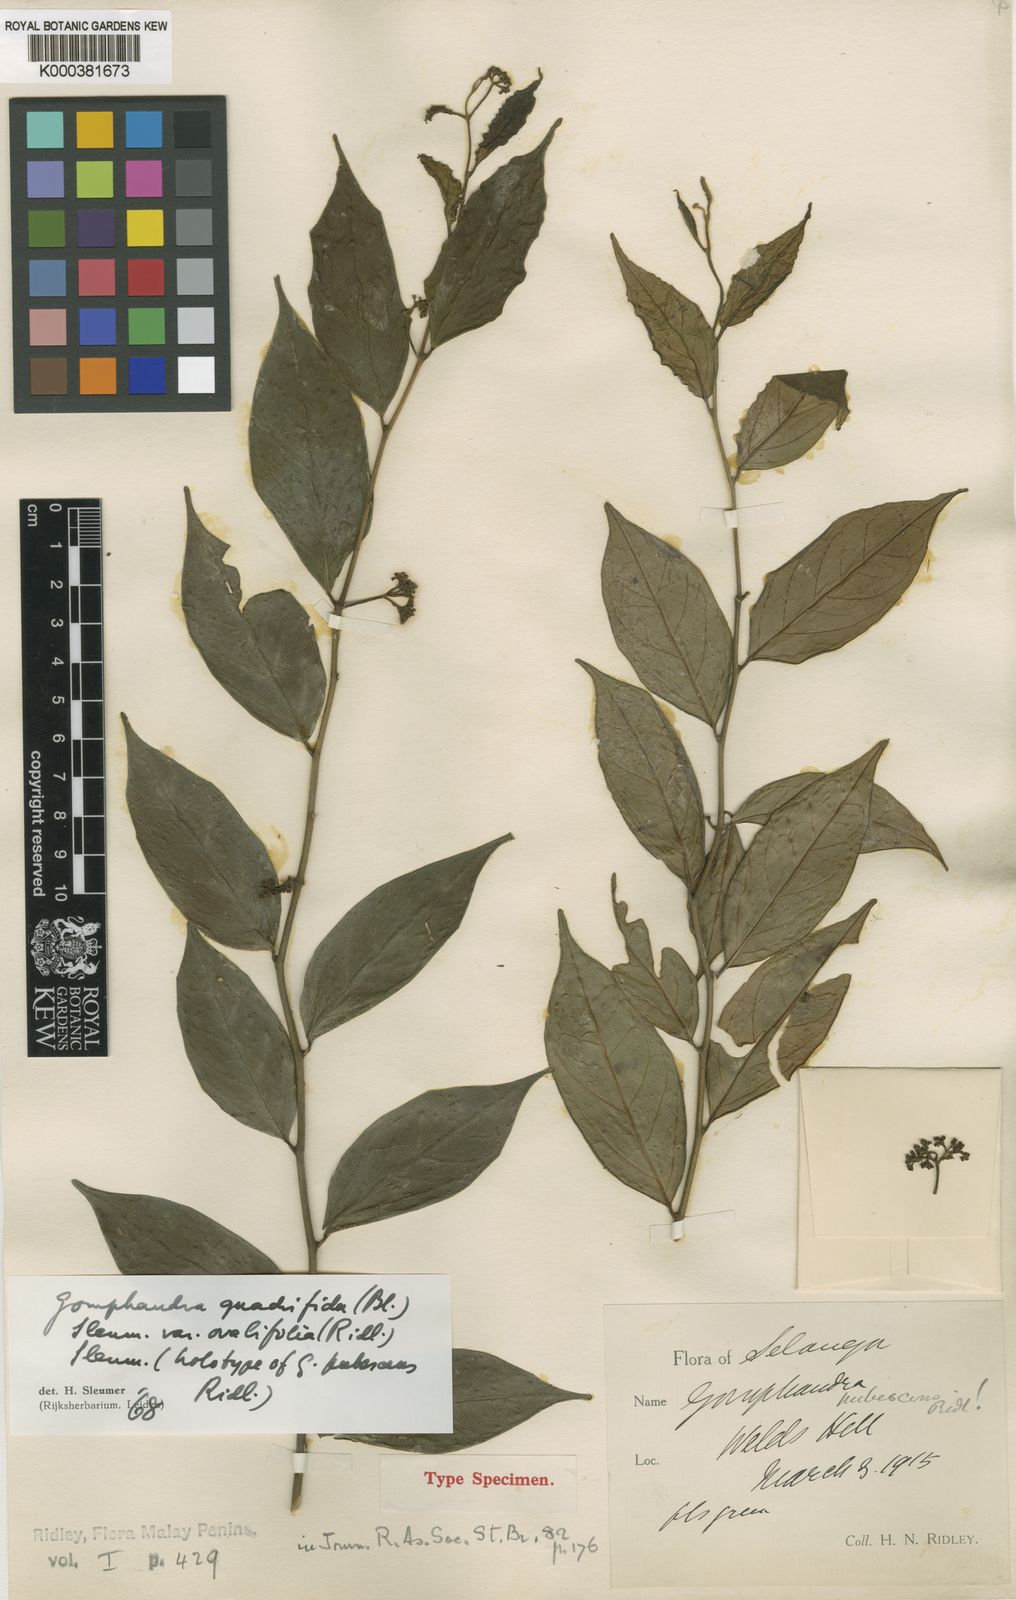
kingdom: Plantae
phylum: Tracheophyta
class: Magnoliopsida
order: Cardiopteridales
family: Stemonuraceae
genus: Gomphandra
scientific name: Gomphandra quadrifida
